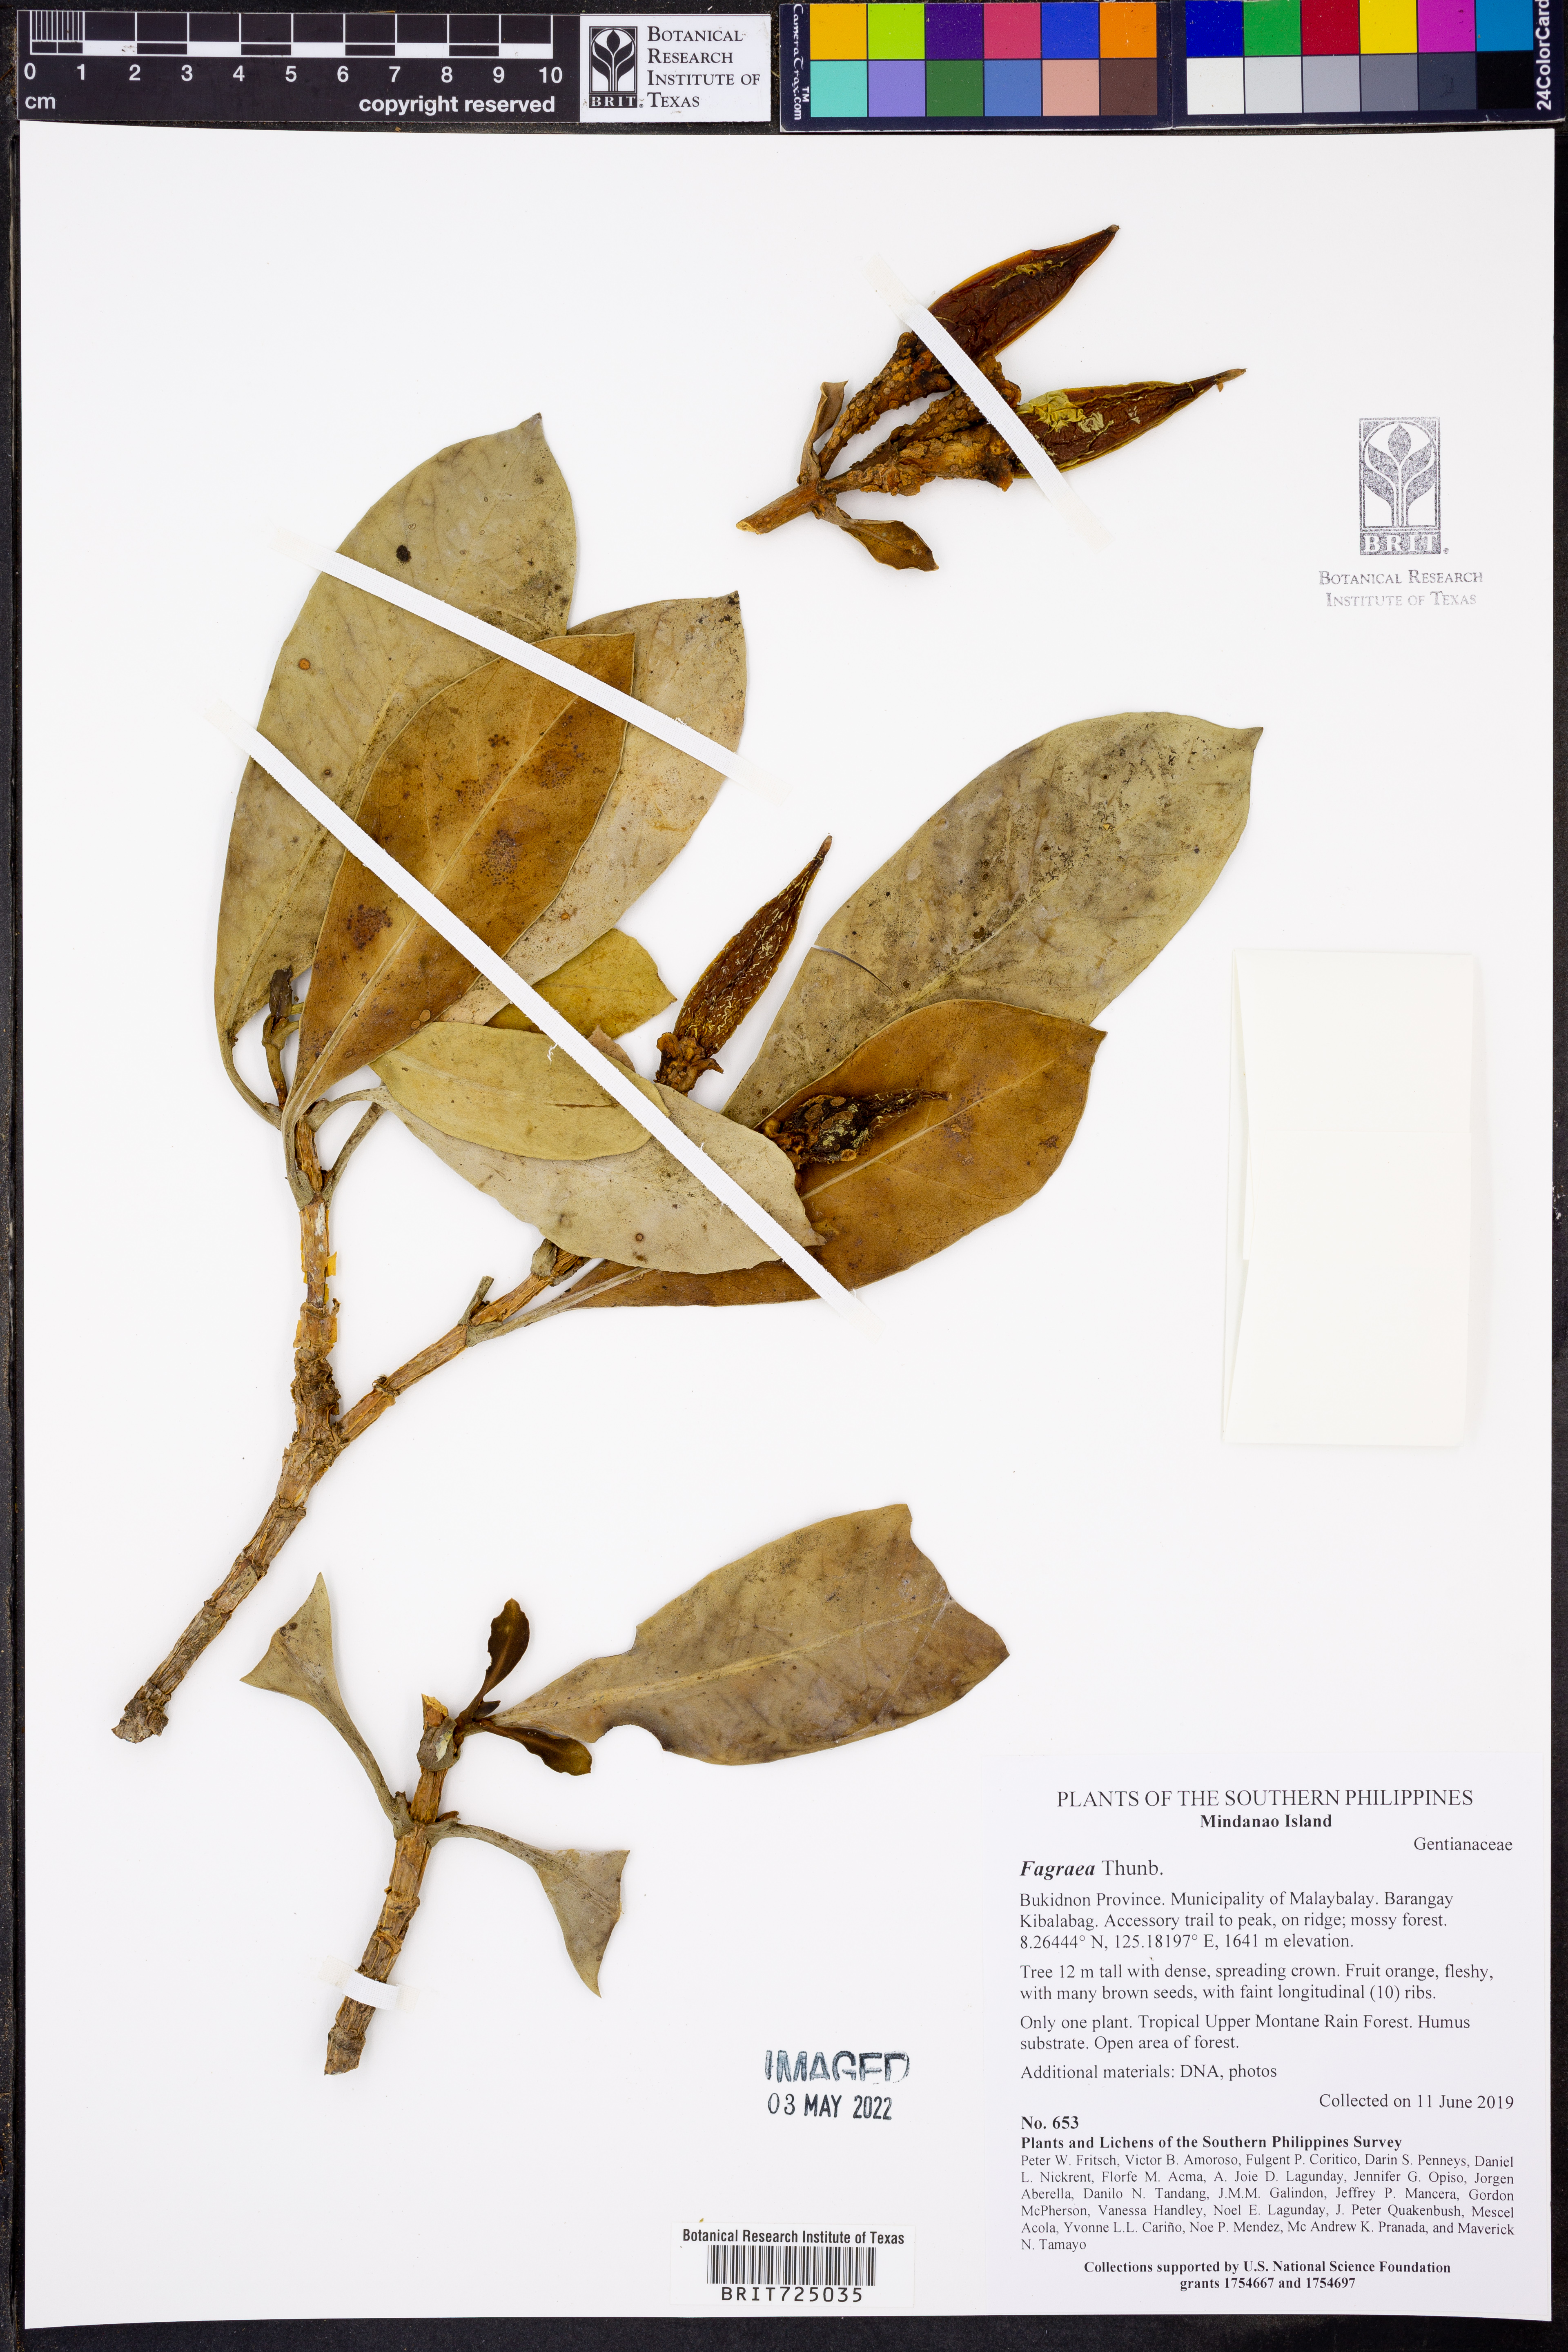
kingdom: Plantae
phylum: Tracheophyta
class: Magnoliopsida
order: Gentianales
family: Gentianaceae
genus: Fagraea
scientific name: Fagraea
